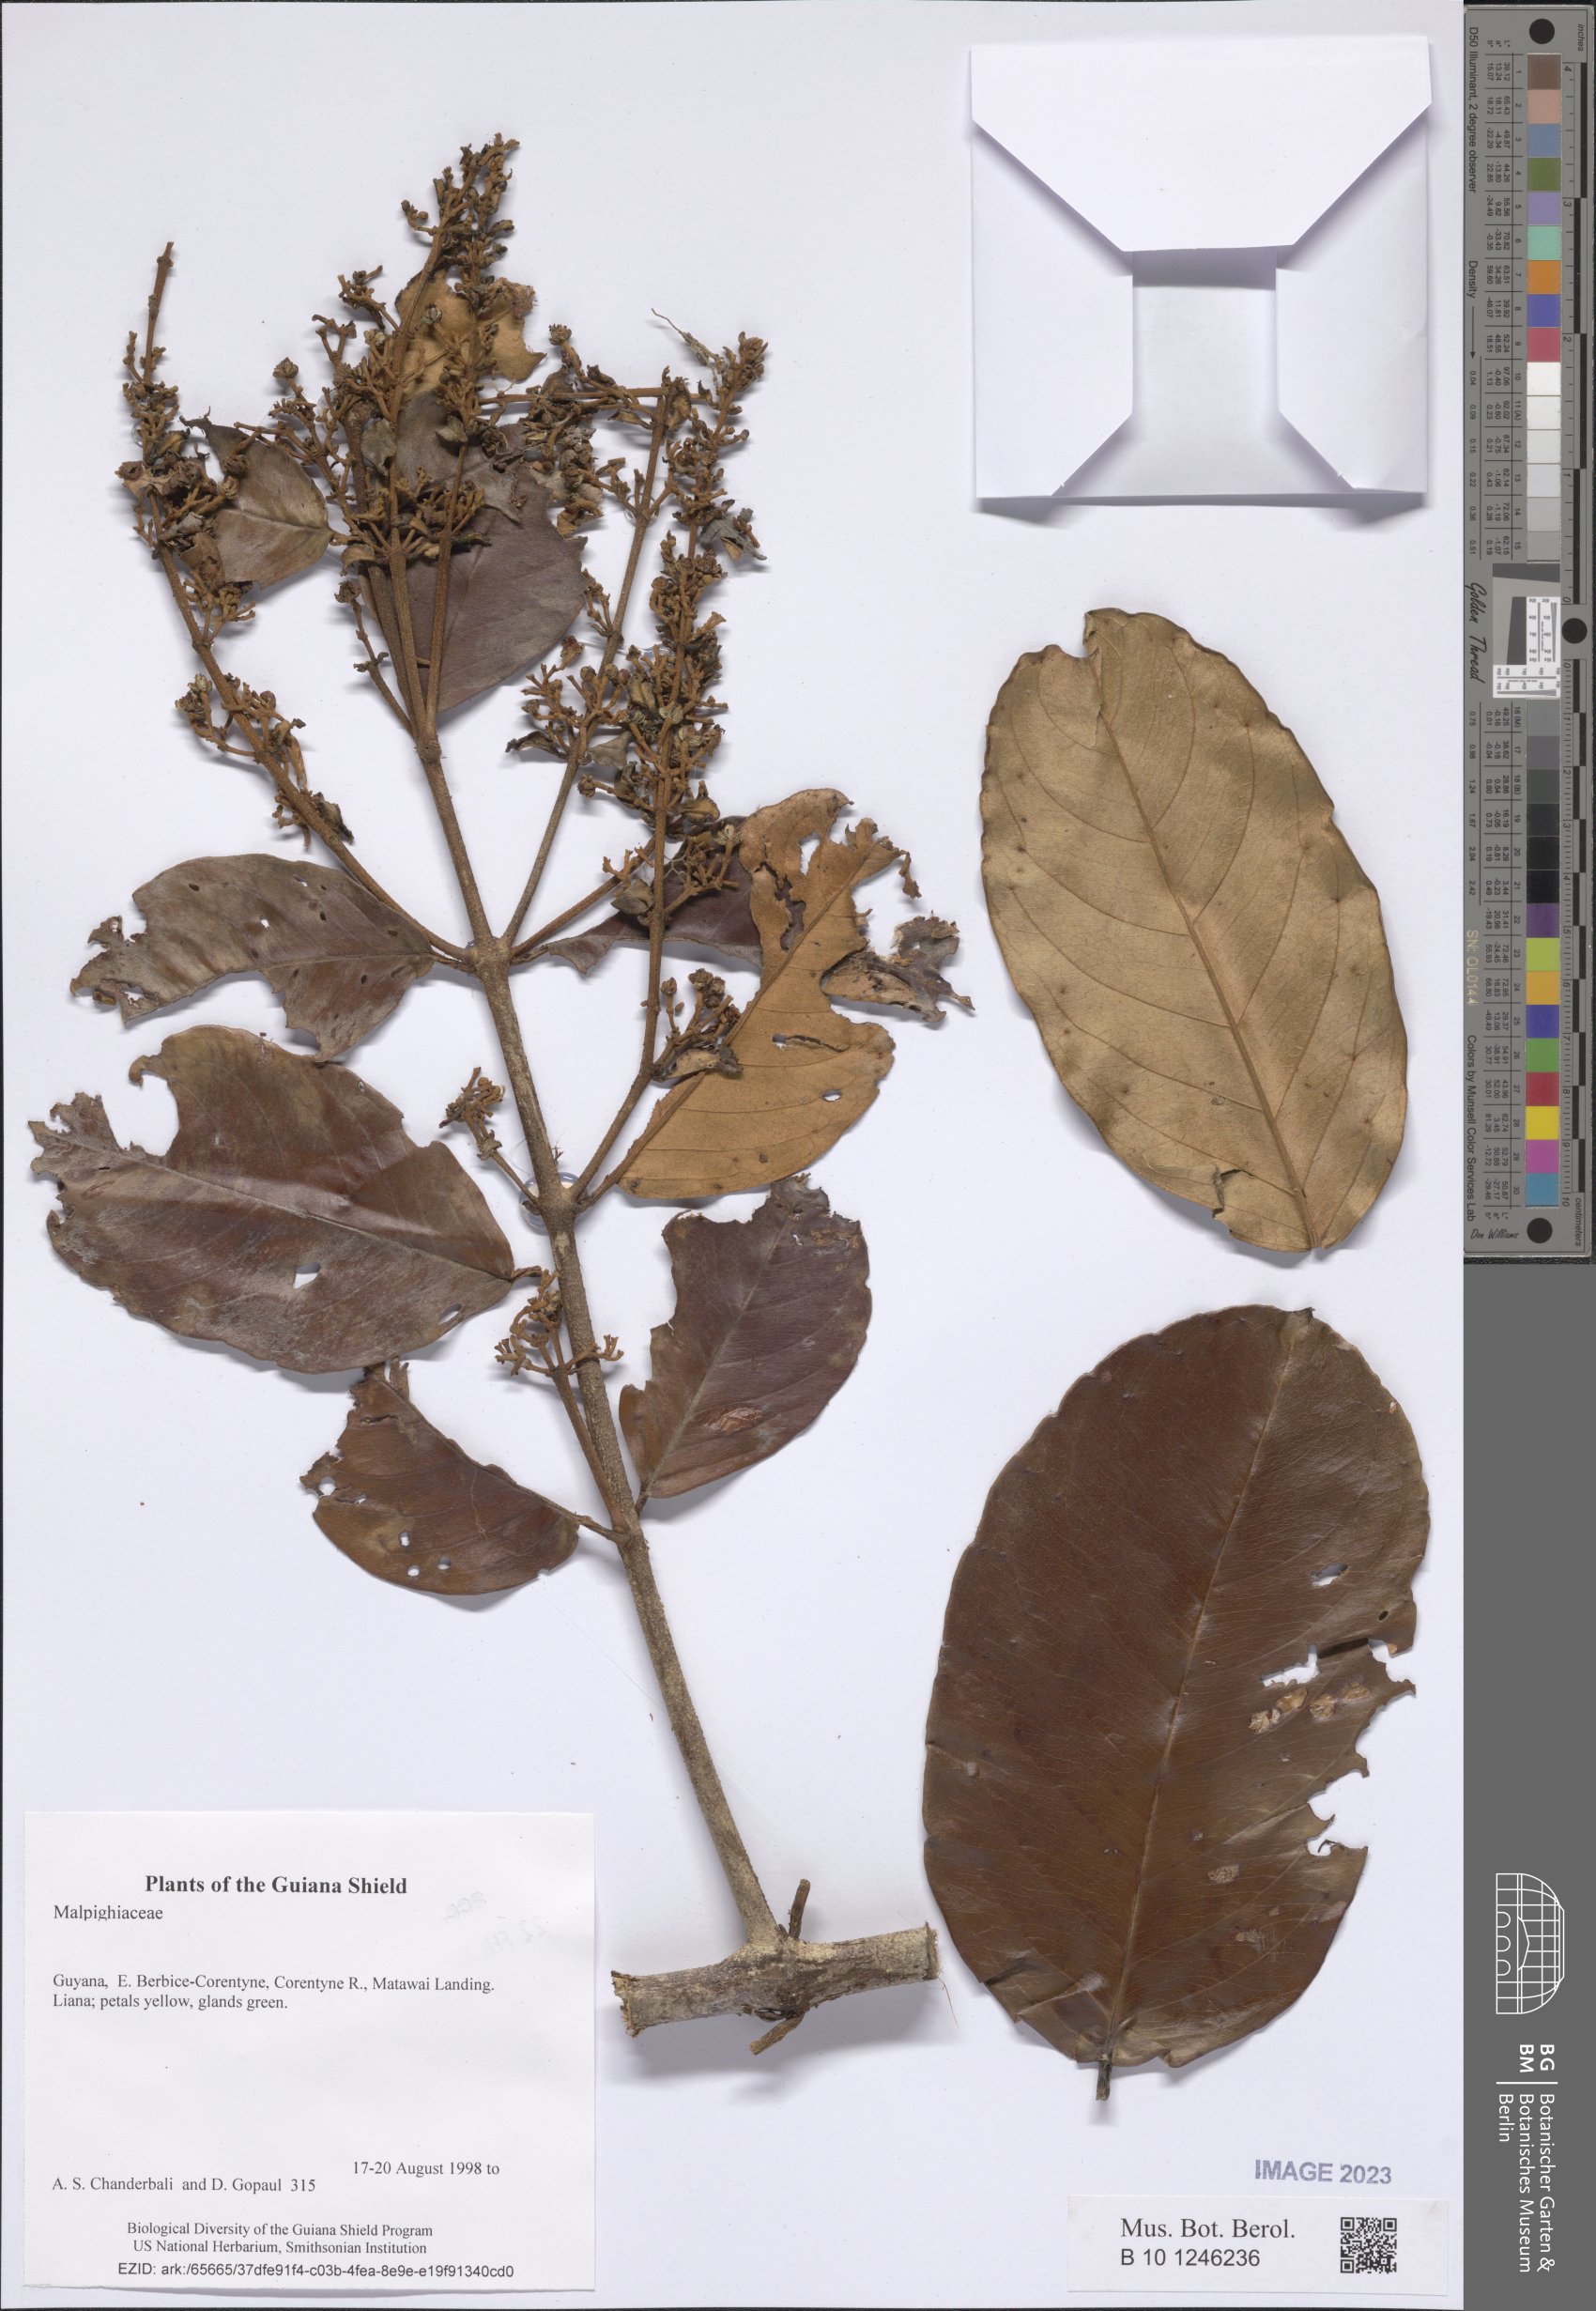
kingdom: Plantae
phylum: Tracheophyta
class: Magnoliopsida
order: Malpighiales
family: Malpighiaceae
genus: Heteropterys
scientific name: Heteropterys
